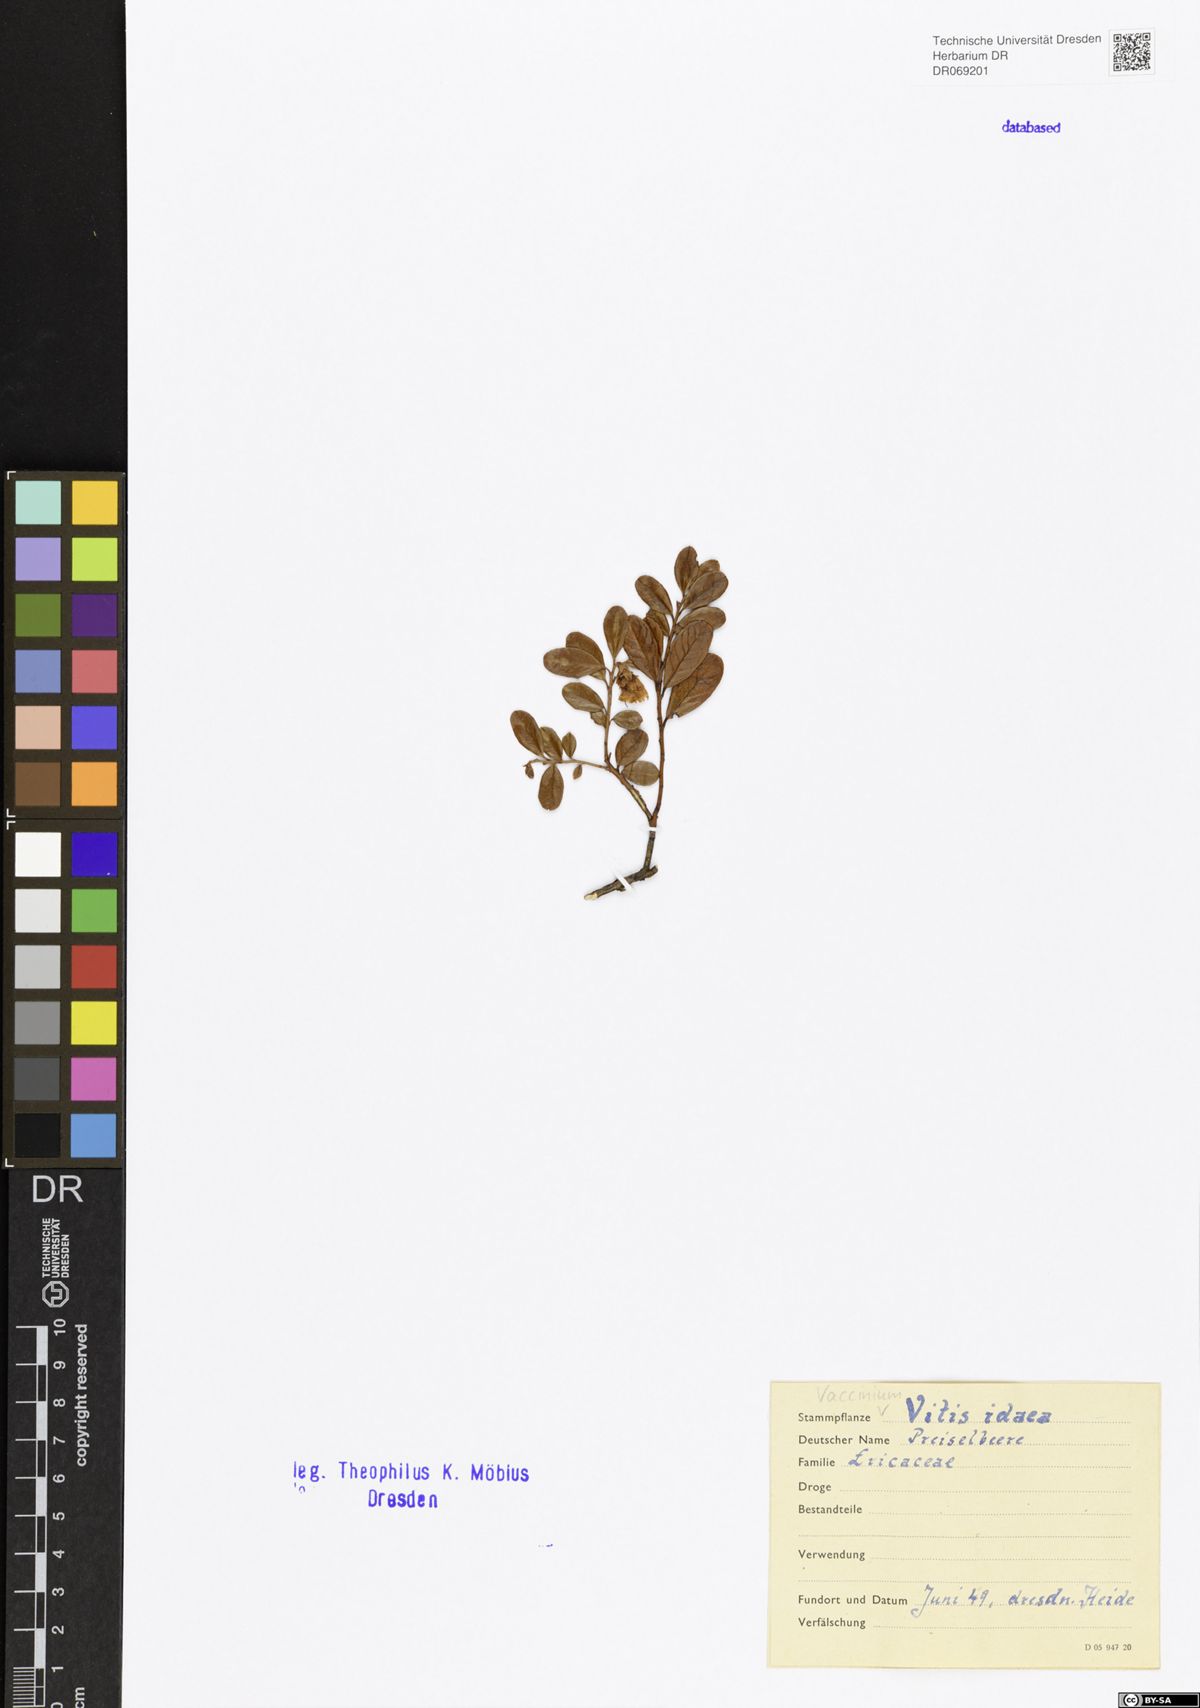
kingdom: Plantae
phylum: Tracheophyta
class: Magnoliopsida
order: Ericales
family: Ericaceae
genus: Vaccinium
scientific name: Vaccinium vitis-idaea
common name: Cowberry
